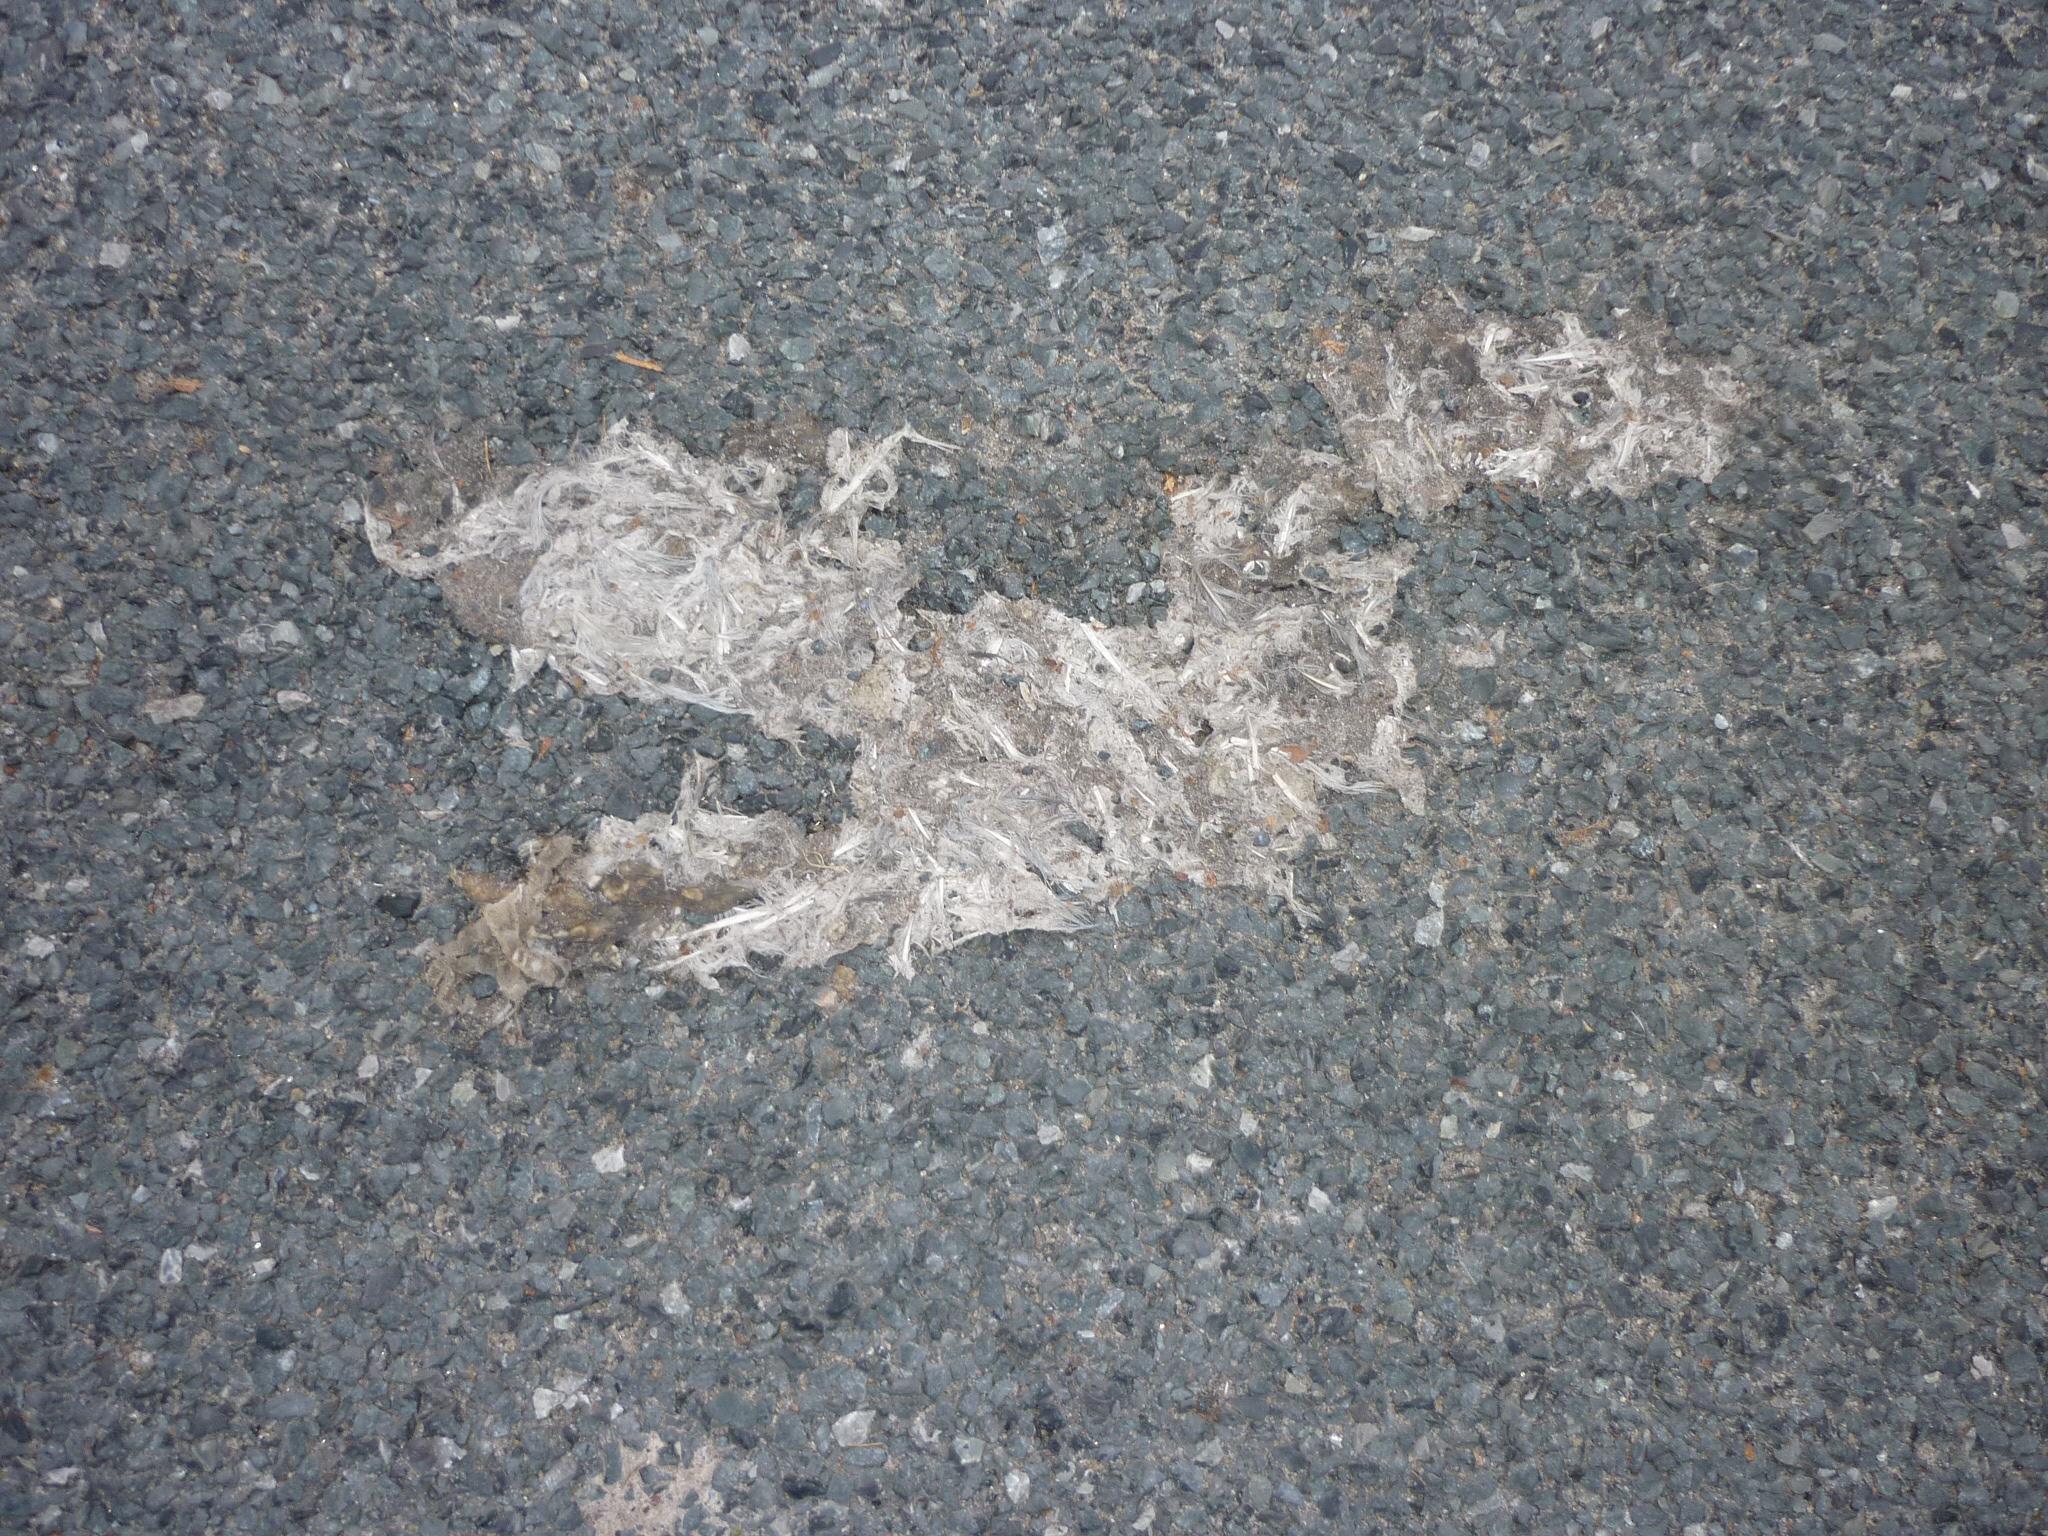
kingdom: Animalia
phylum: Chordata
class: Aves
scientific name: Aves
